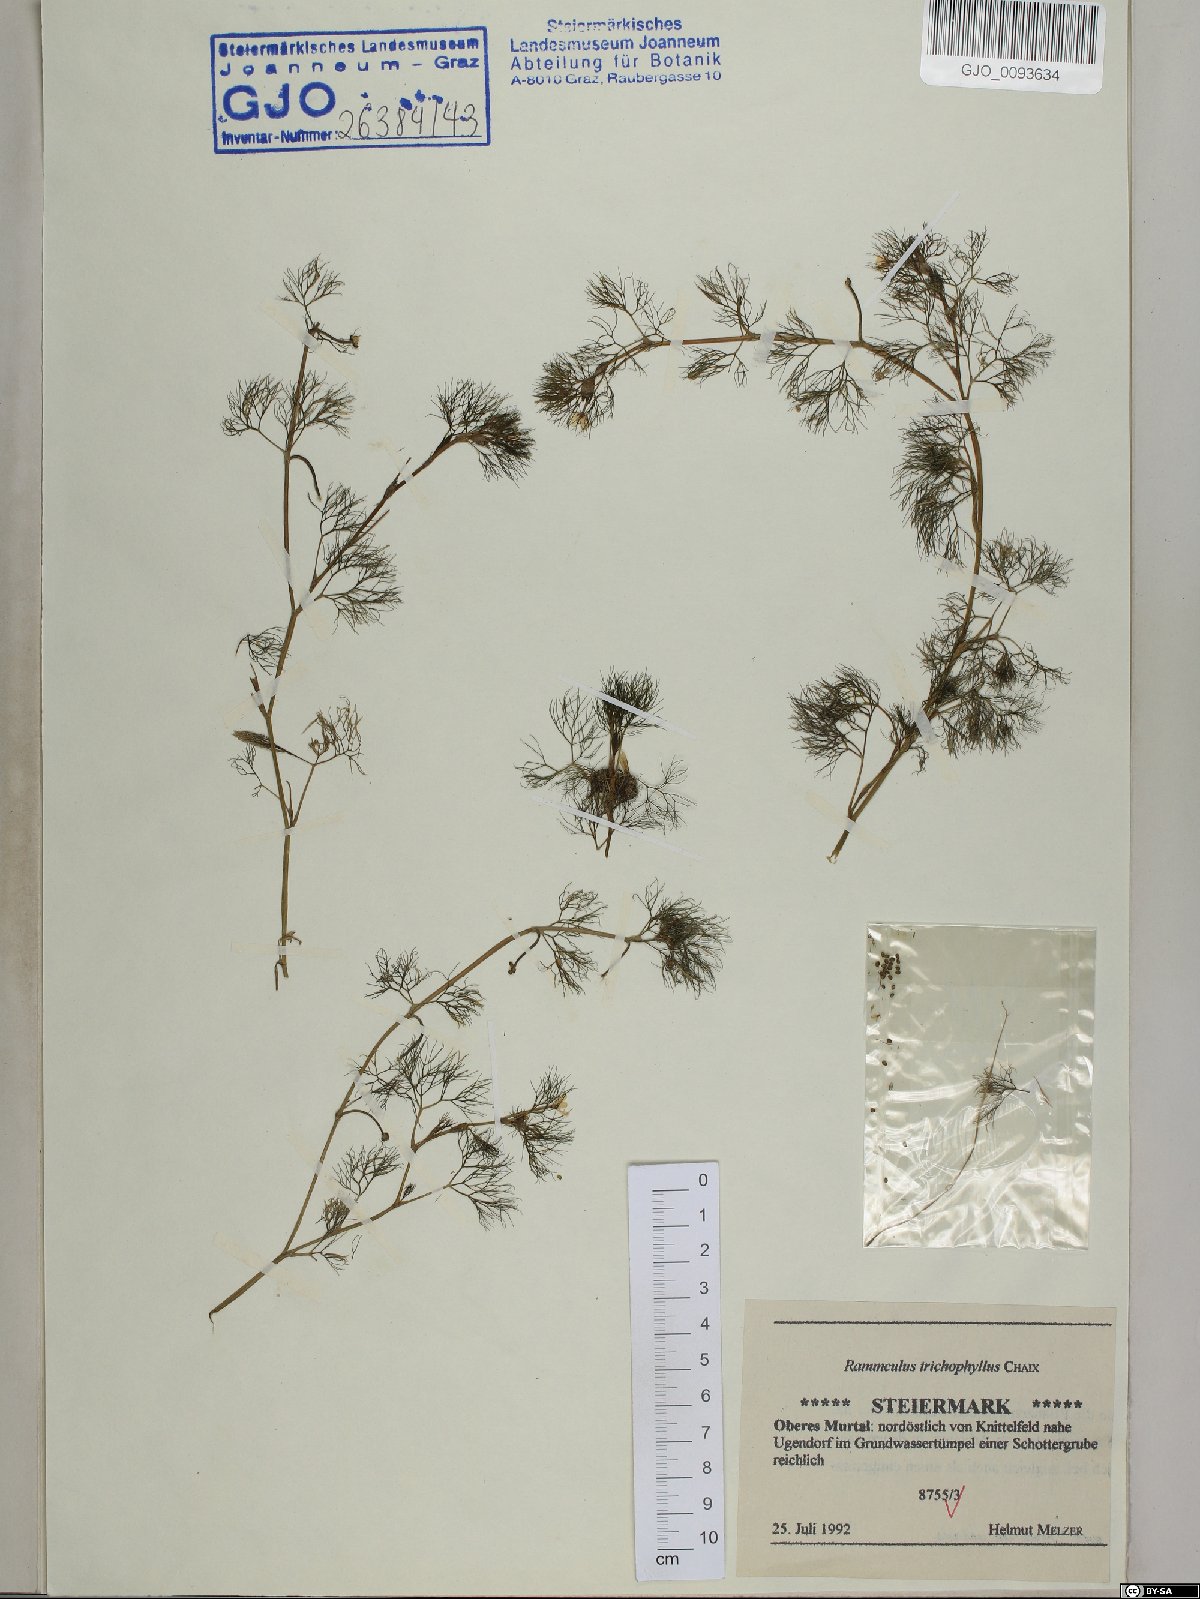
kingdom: Plantae
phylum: Tracheophyta
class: Magnoliopsida
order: Ranunculales
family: Ranunculaceae
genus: Ranunculus
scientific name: Ranunculus trichophyllus
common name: Thread-leaved water-crowfoot
